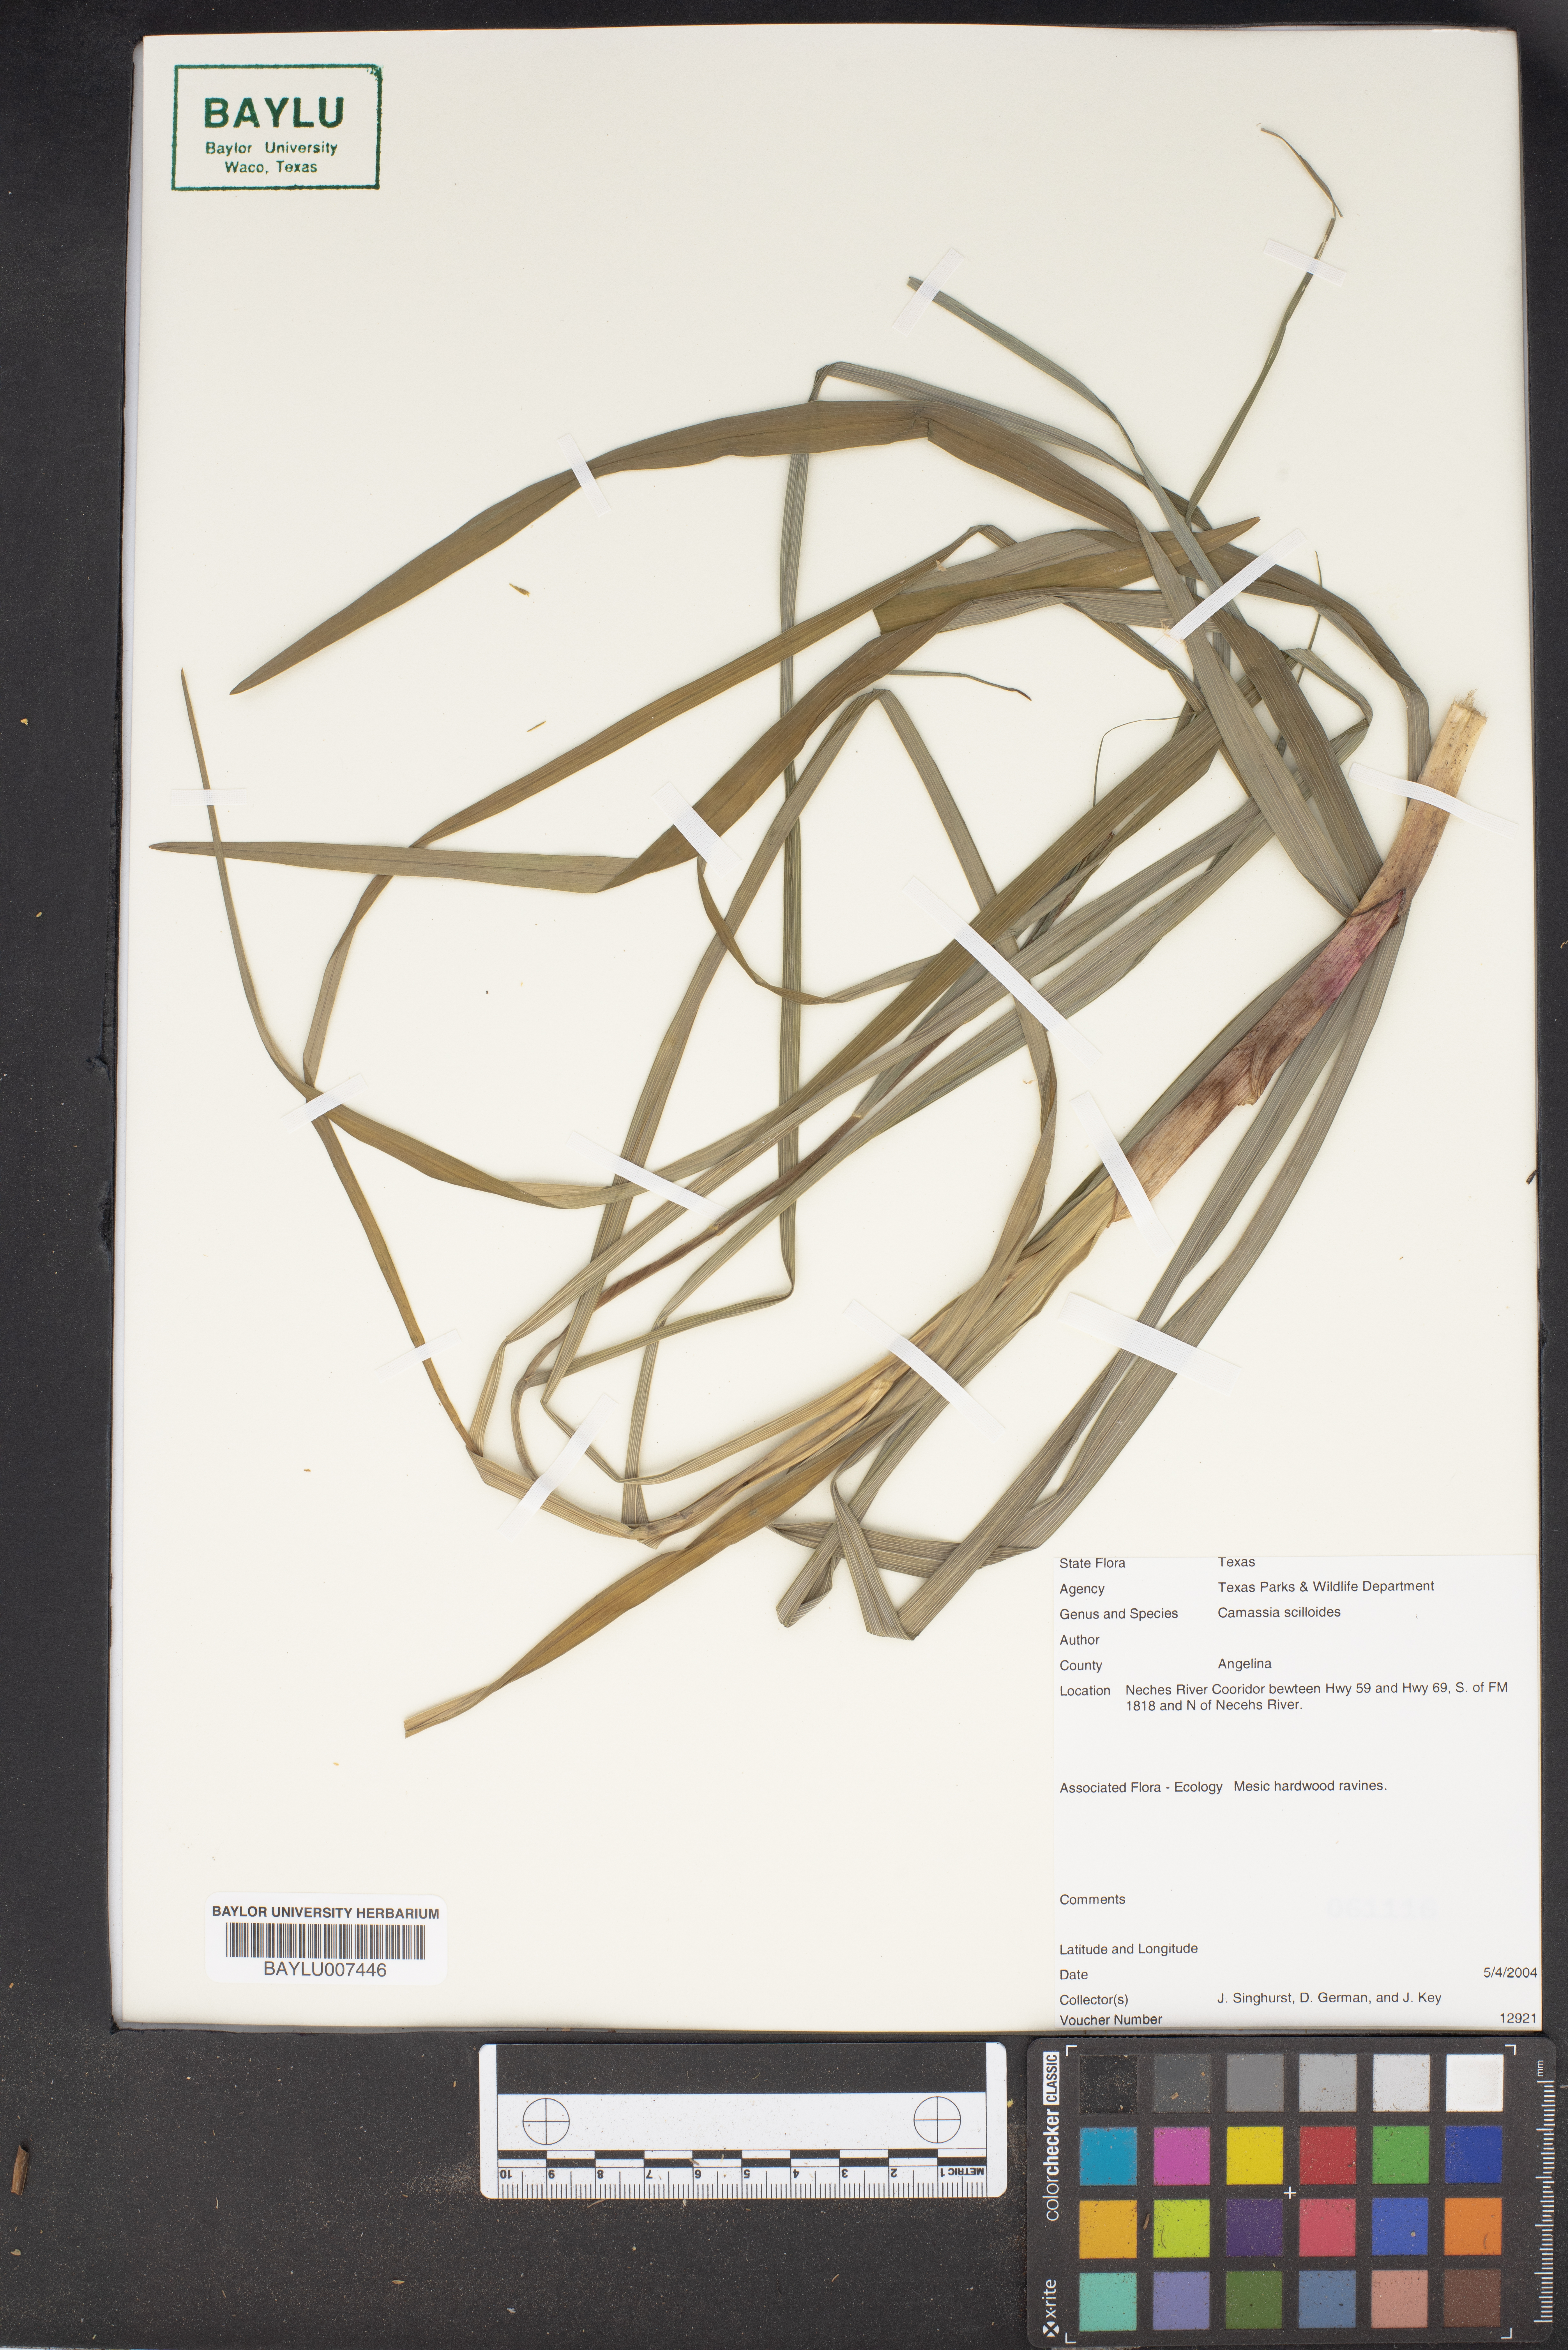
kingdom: Plantae
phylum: Tracheophyta
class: Liliopsida
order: Asparagales
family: Asparagaceae
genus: Camassia
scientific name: Camassia scilloides
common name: Wild hyacinth
